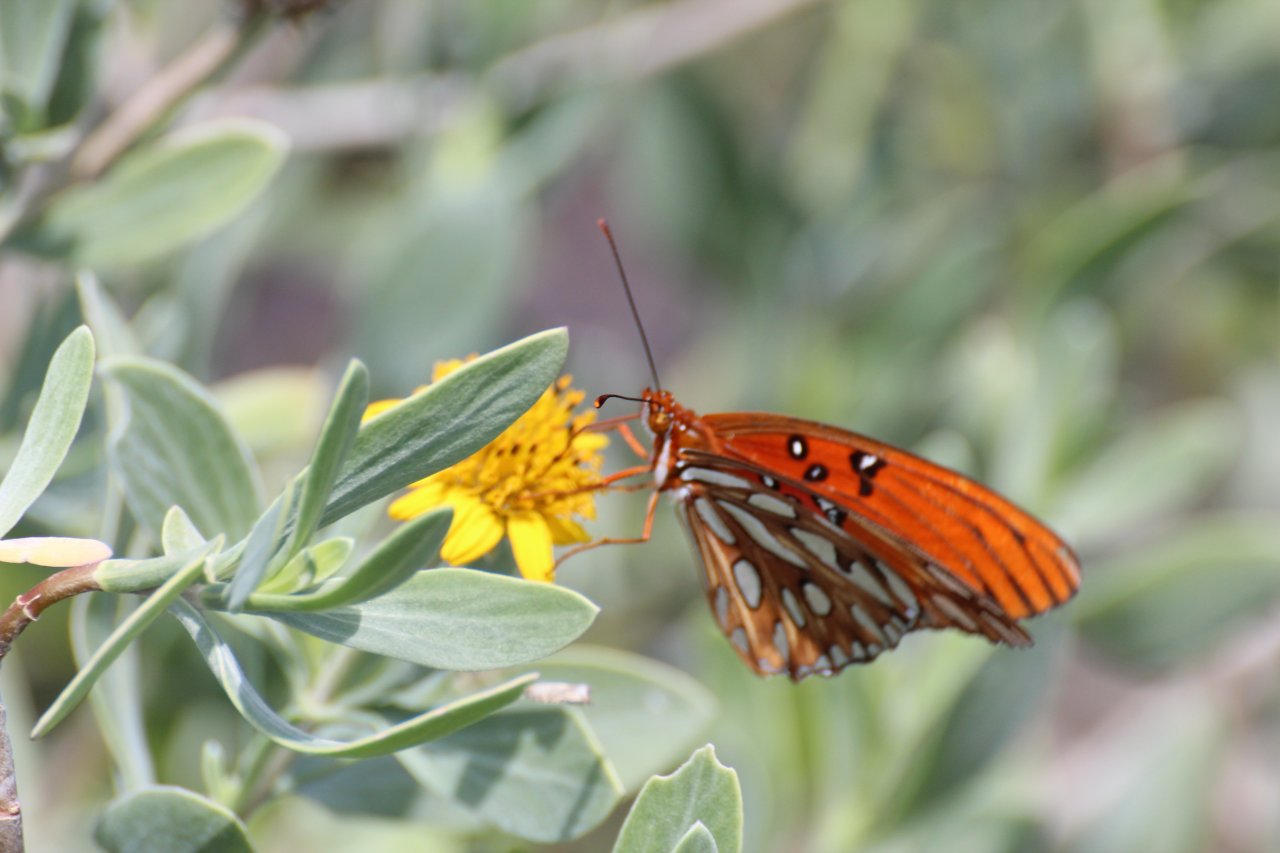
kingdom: Animalia
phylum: Arthropoda
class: Insecta
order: Lepidoptera
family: Nymphalidae
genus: Dione
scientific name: Dione vanillae
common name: Gulf Fritillary
